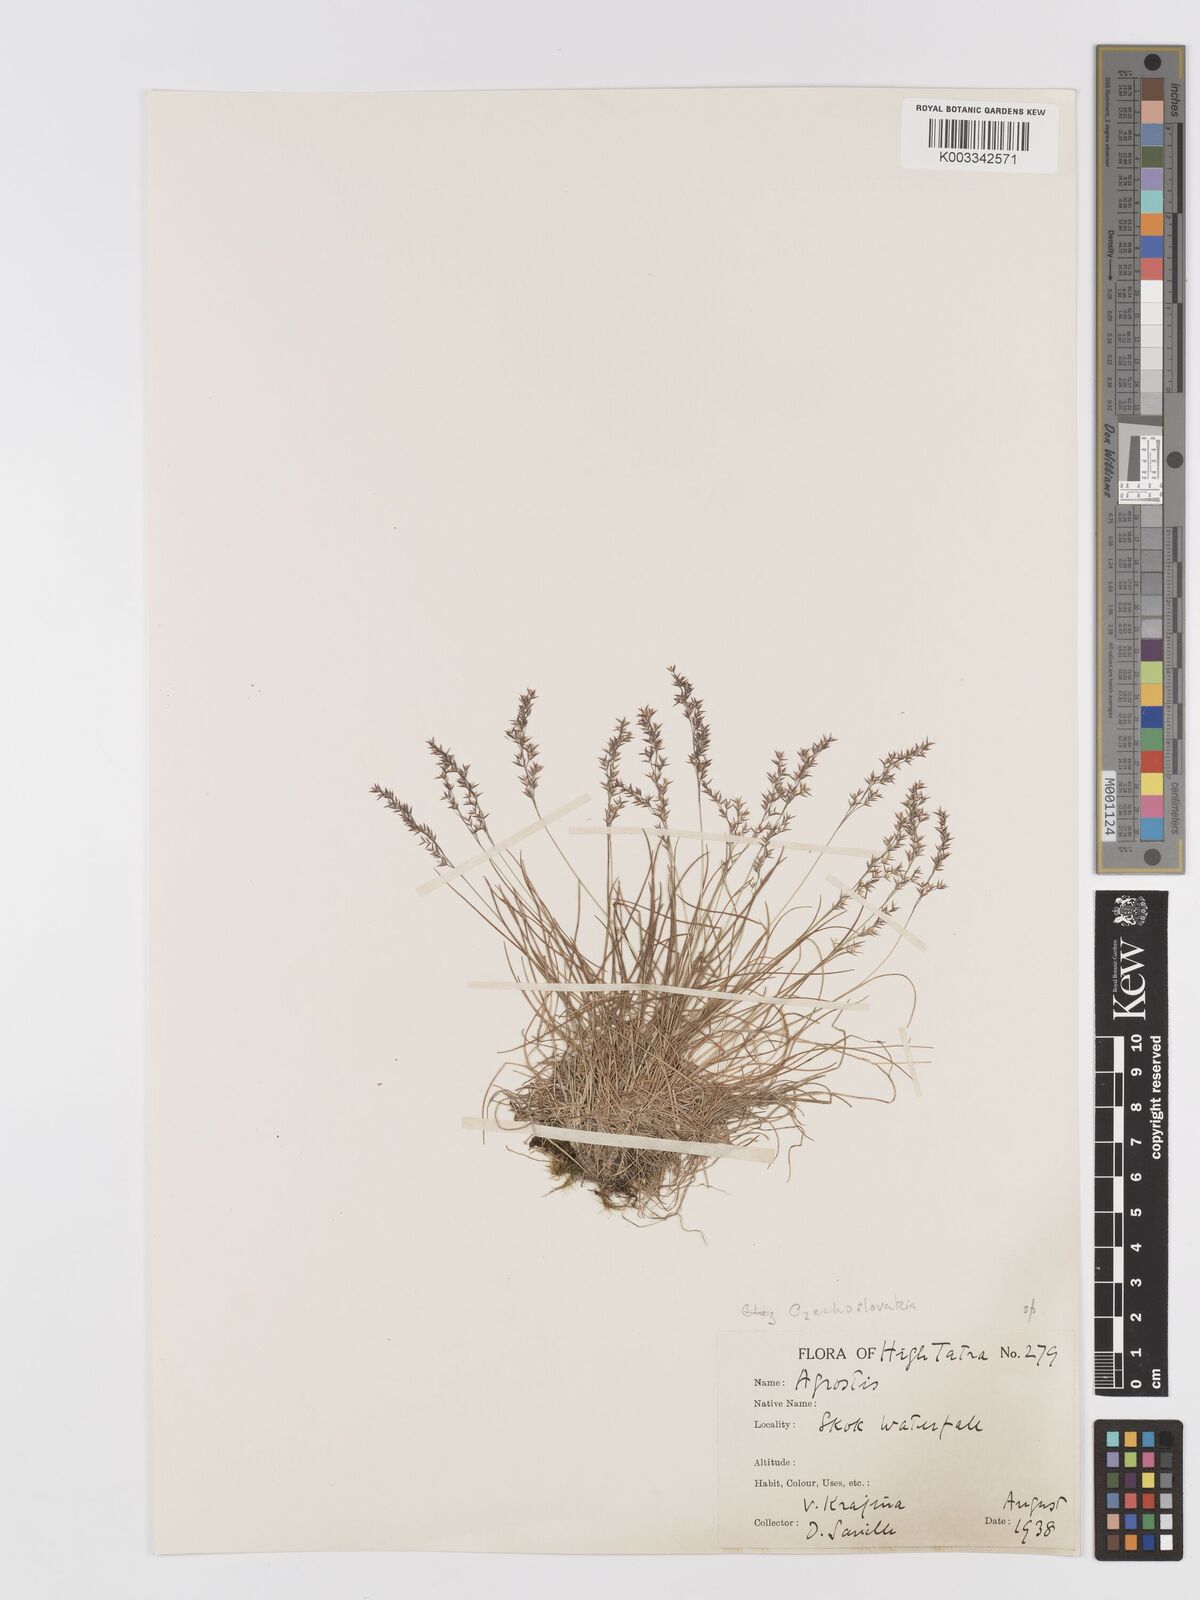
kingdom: Plantae
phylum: Tracheophyta
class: Liliopsida
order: Poales
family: Poaceae
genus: Agrostis
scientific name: Agrostis
